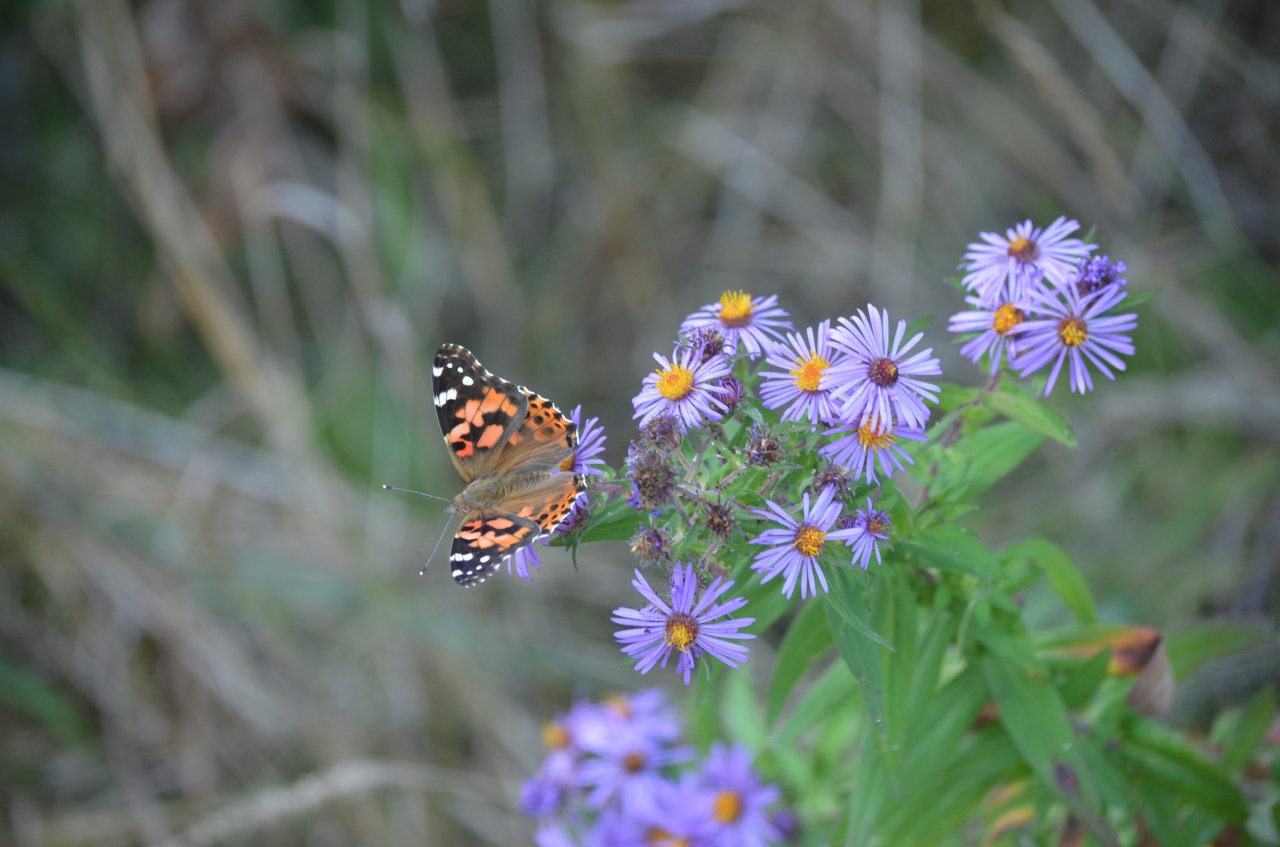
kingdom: Animalia
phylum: Arthropoda
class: Insecta
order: Lepidoptera
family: Nymphalidae
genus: Vanessa
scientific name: Vanessa cardui
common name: Painted Lady
